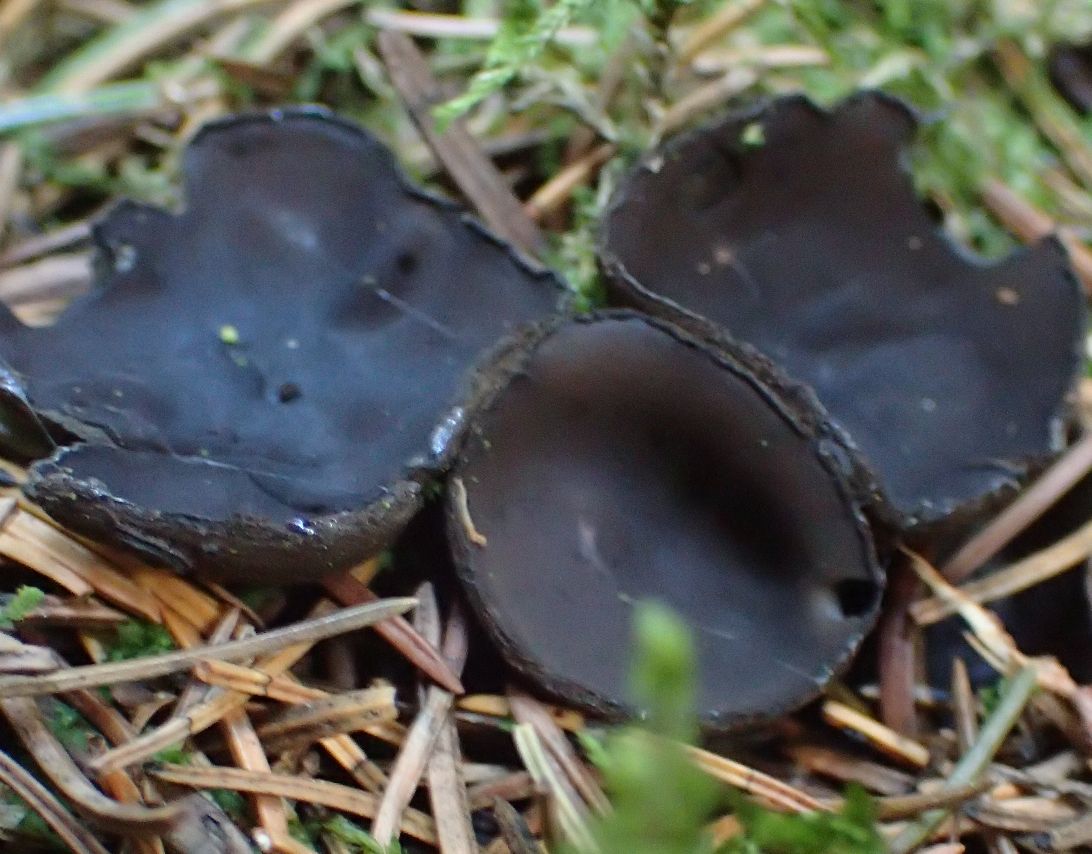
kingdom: Fungi
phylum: Ascomycota
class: Pezizomycetes
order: Pezizales
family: Sarcosomataceae
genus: Pseudoplectania
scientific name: Pseudoplectania nigrella
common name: almindelig sortbæger
